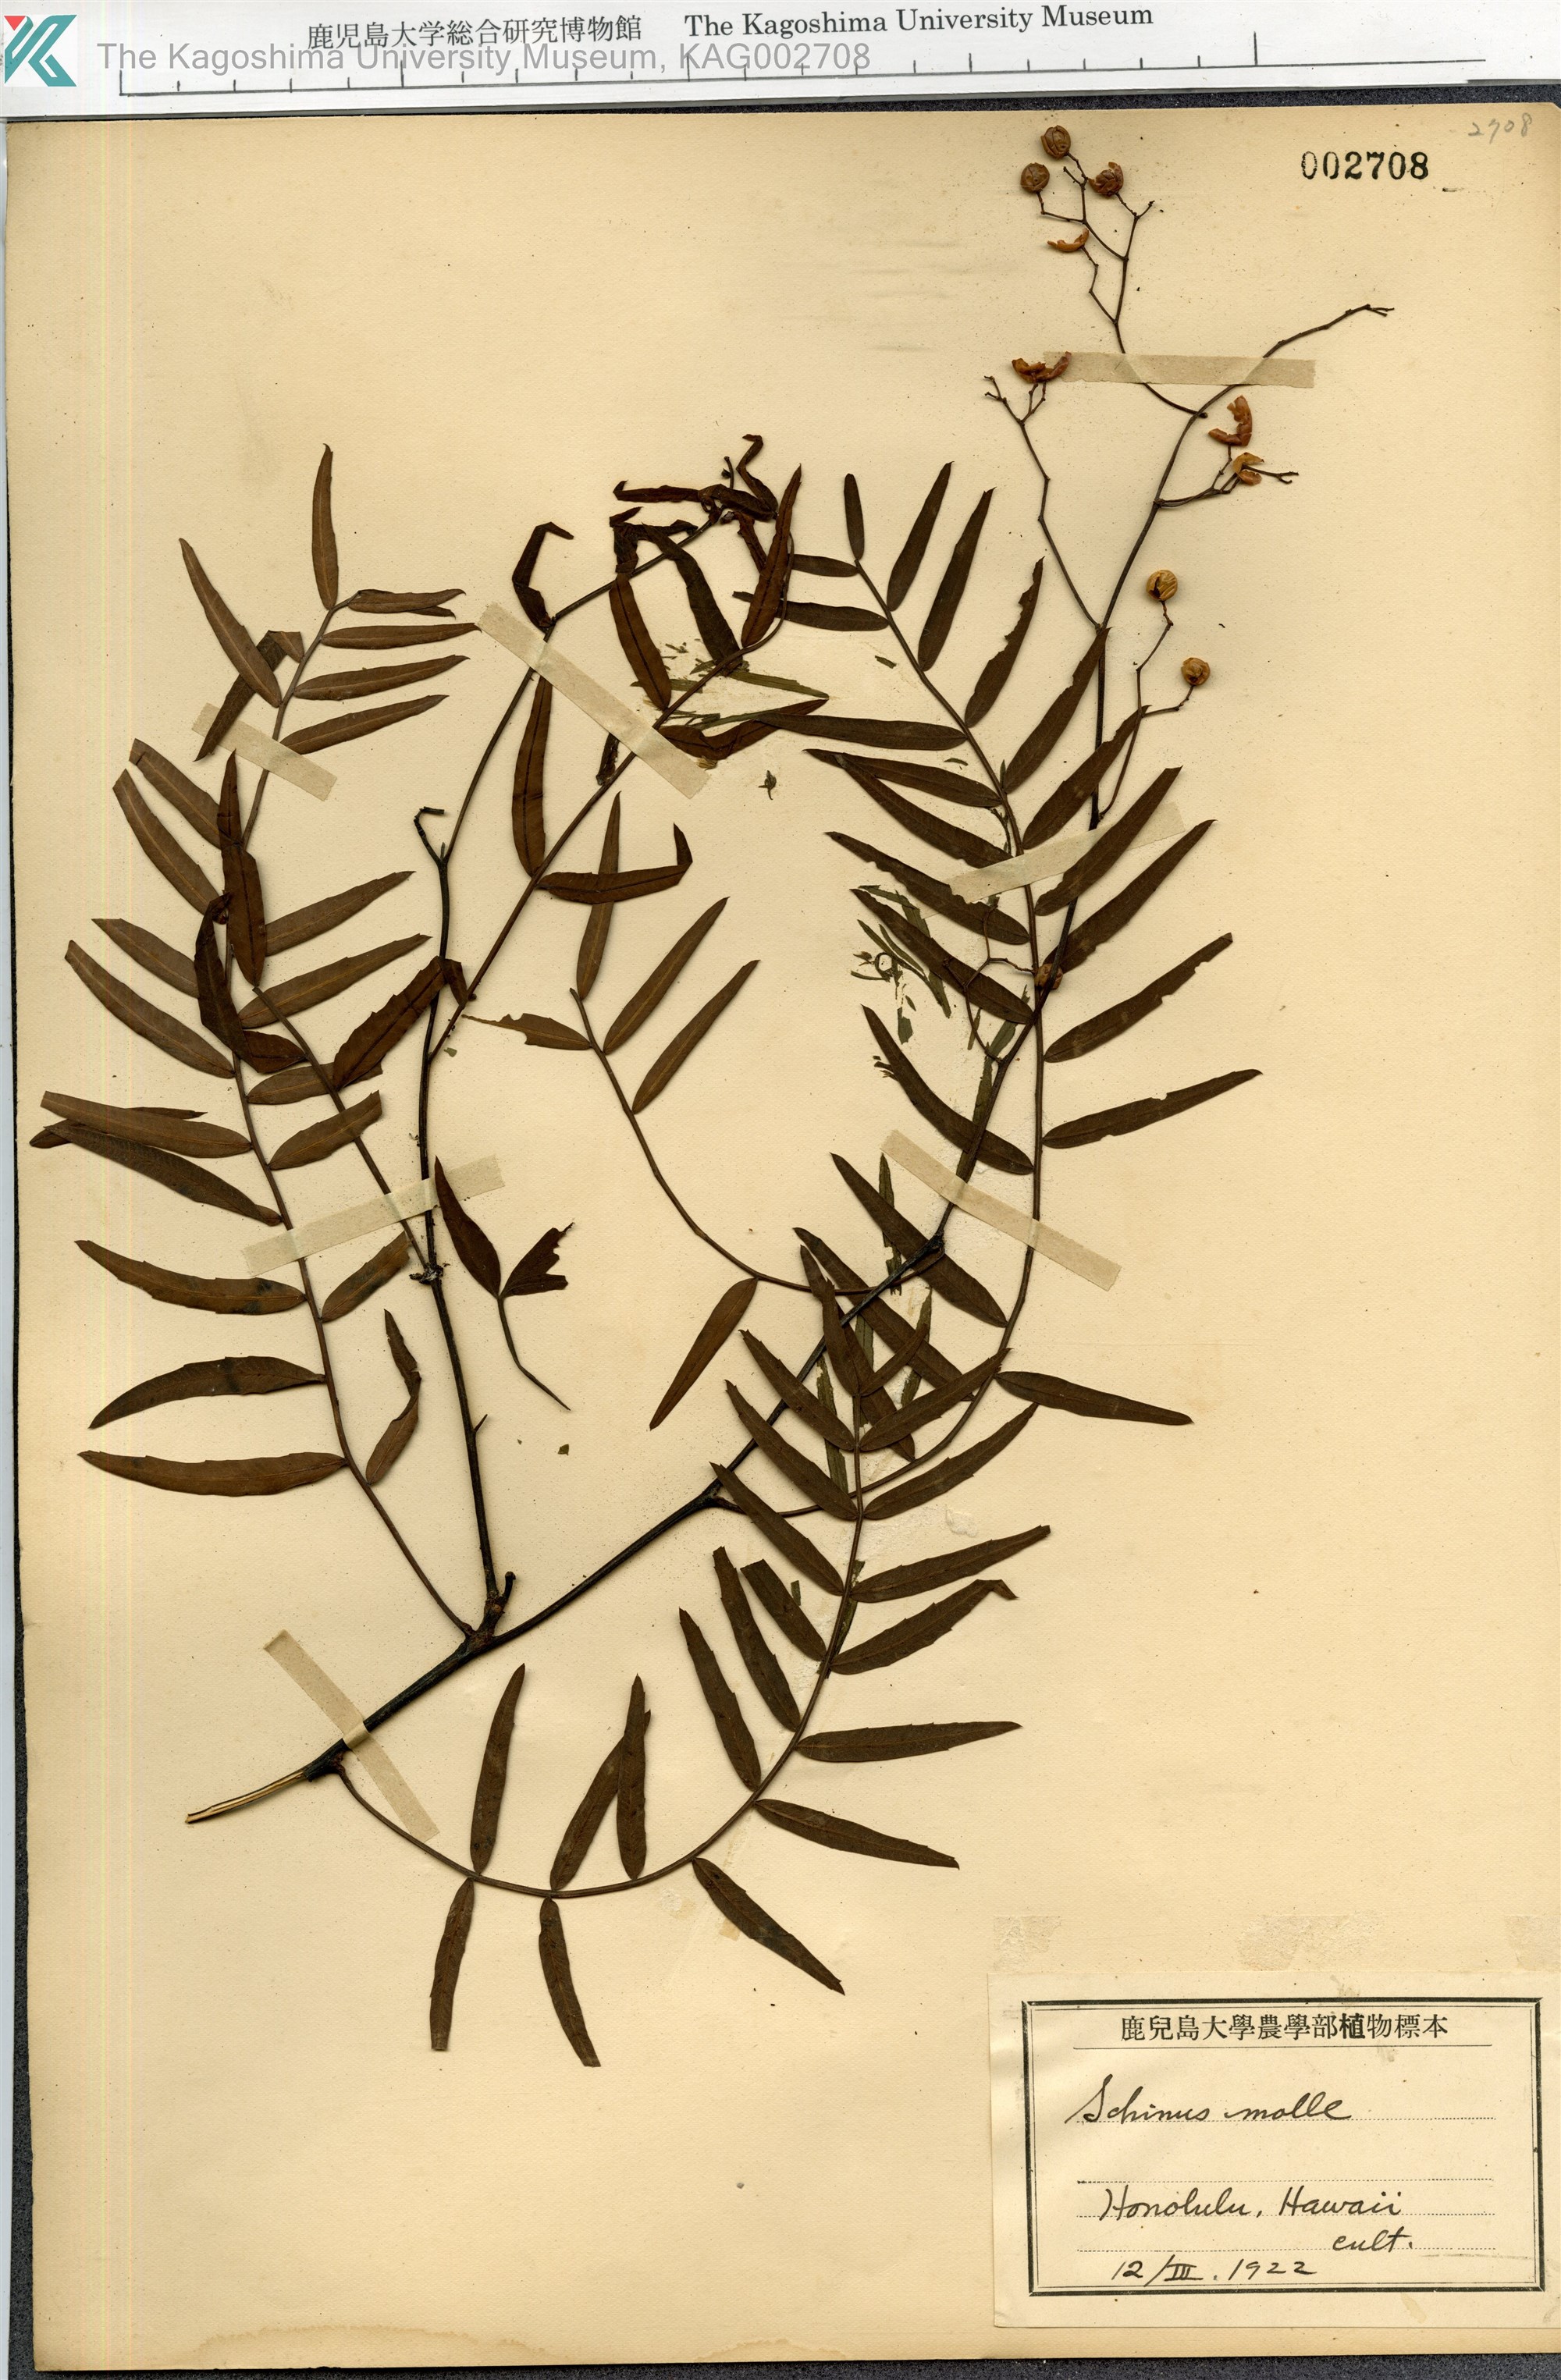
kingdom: Plantae
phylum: Tracheophyta
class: Magnoliopsida
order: Sapindales
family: Anacardiaceae
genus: Schinus
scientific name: Schinus molle
